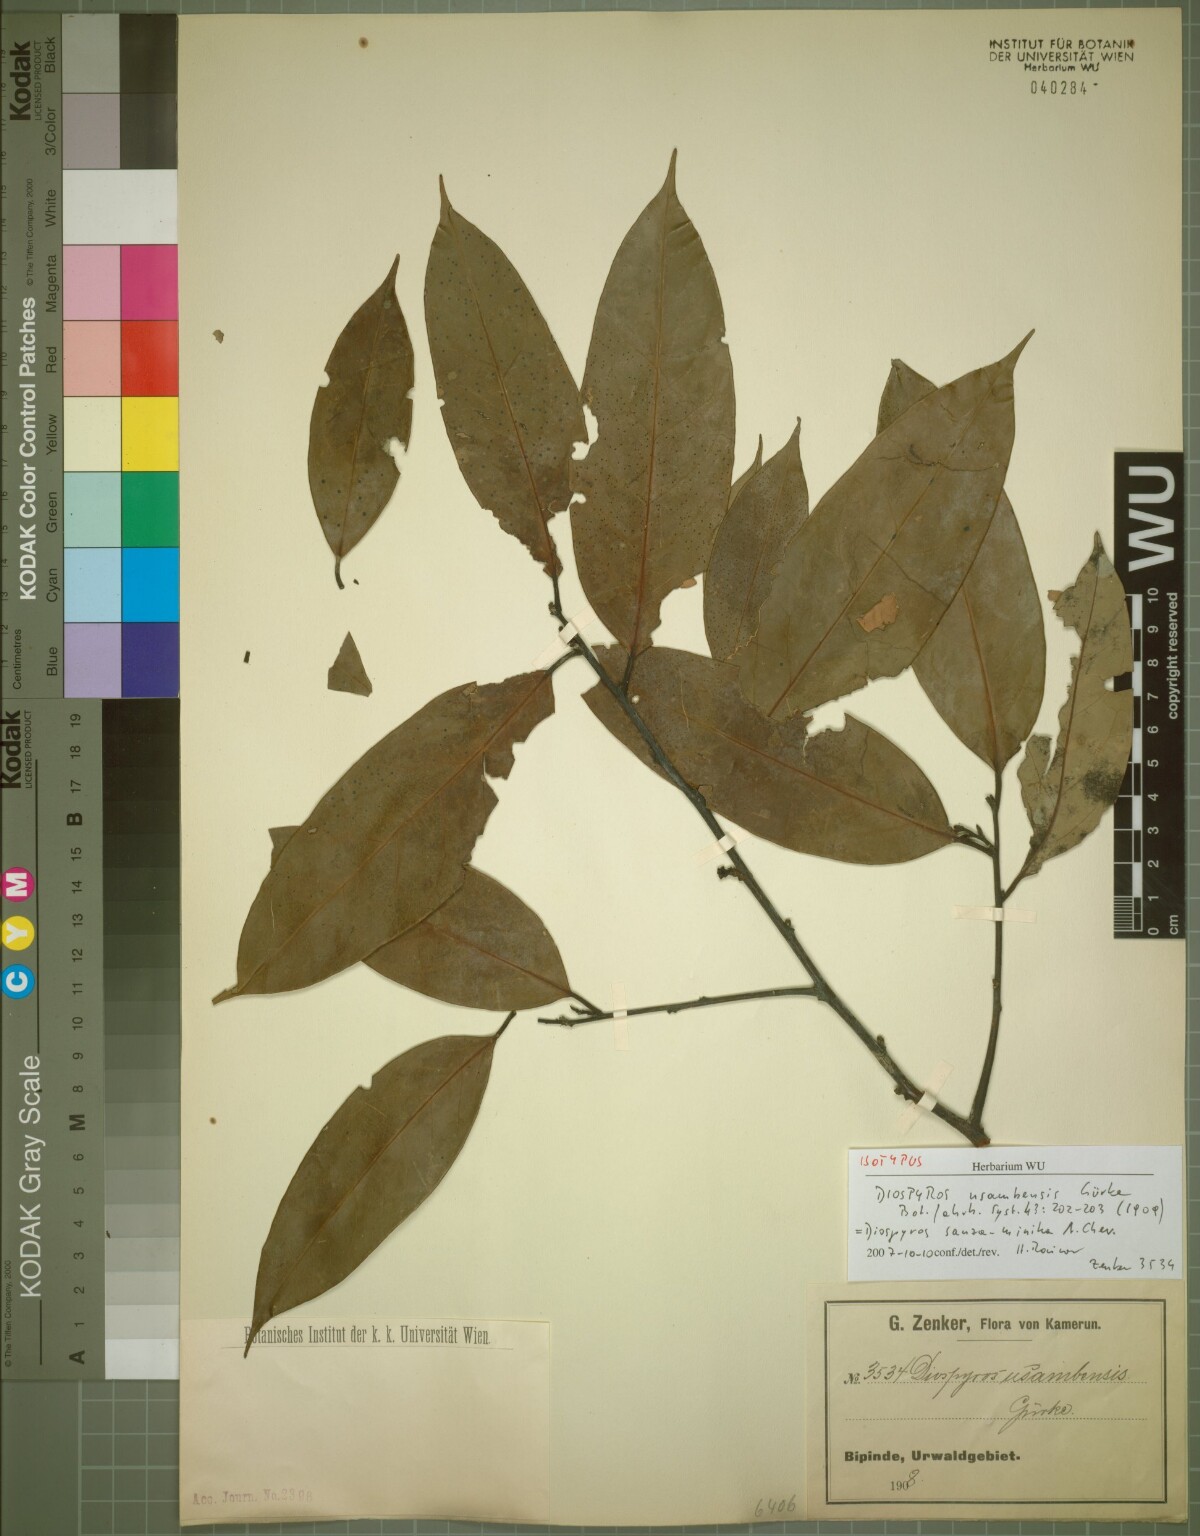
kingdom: Plantae
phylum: Tracheophyta
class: Magnoliopsida
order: Ericales
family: Ebenaceae
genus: Diospyros
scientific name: Diospyros sanza-minika
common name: Flint bark
